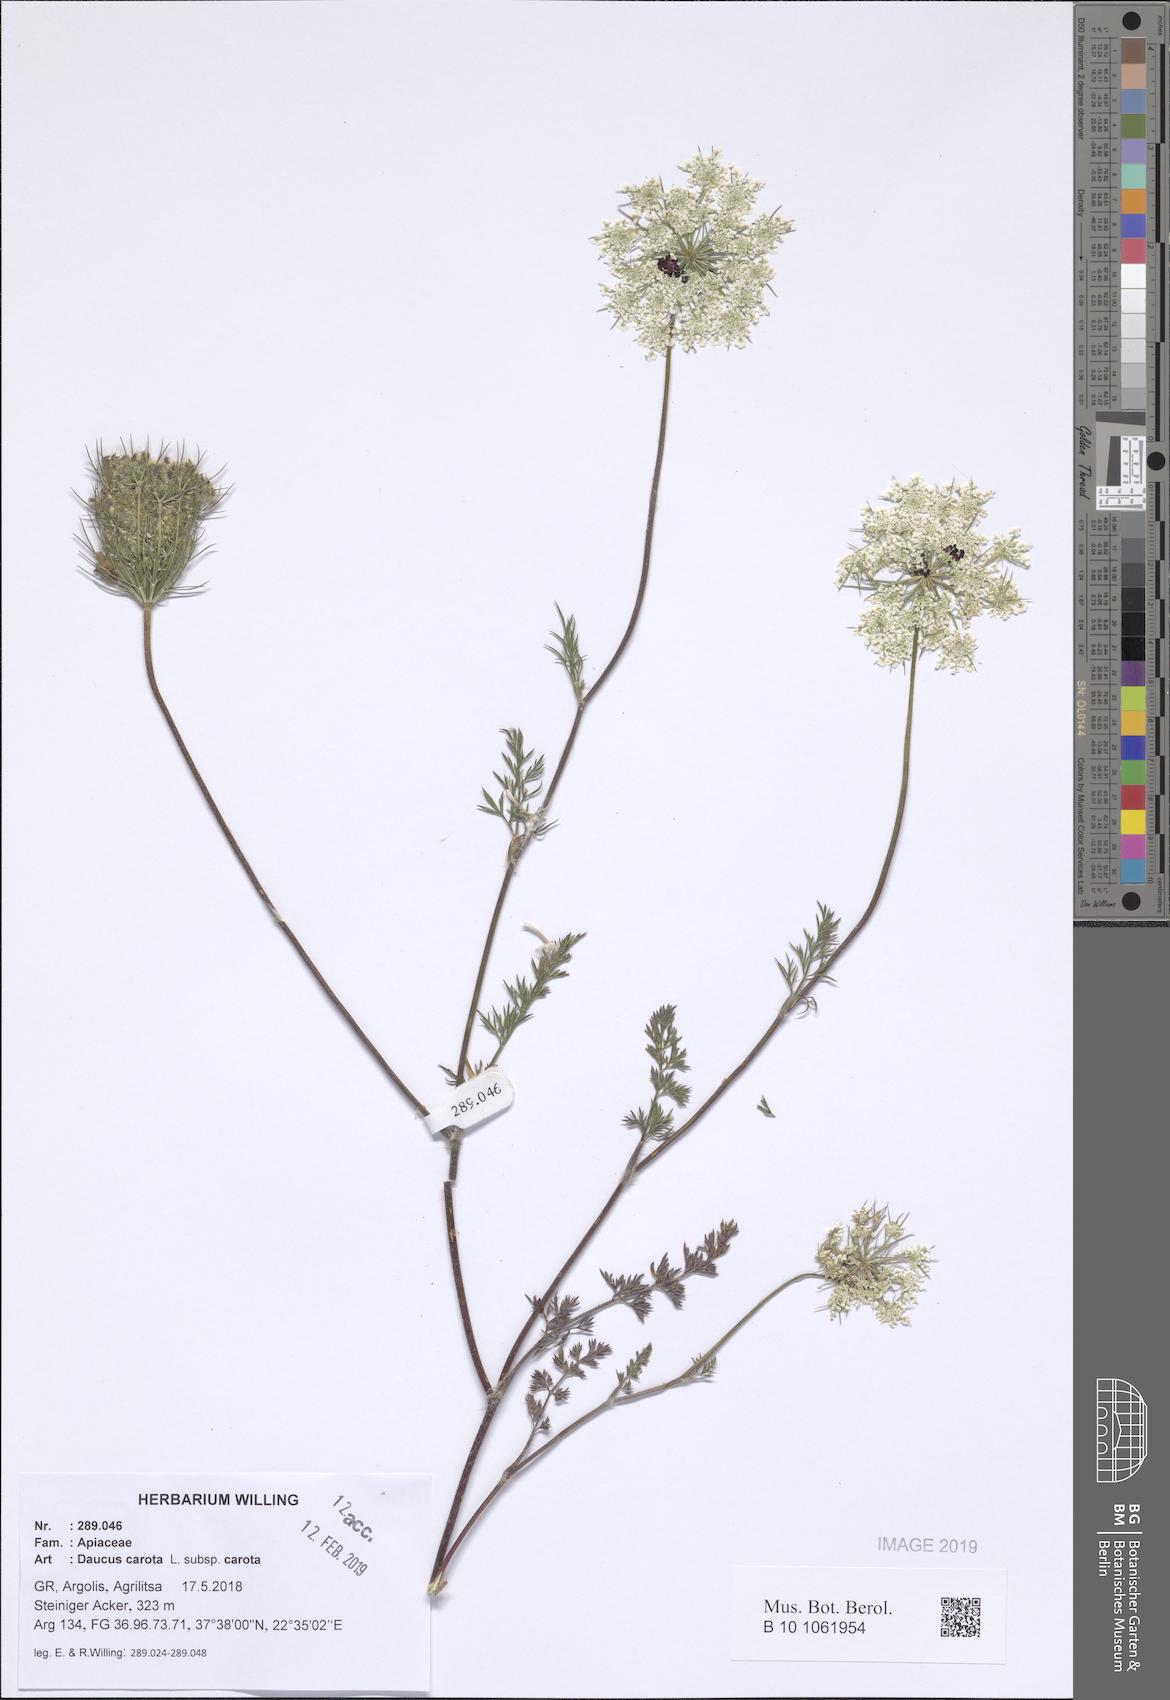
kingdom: Plantae
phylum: Tracheophyta
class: Magnoliopsida
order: Apiales
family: Apiaceae
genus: Daucus
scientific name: Daucus carota
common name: Wild carrot
